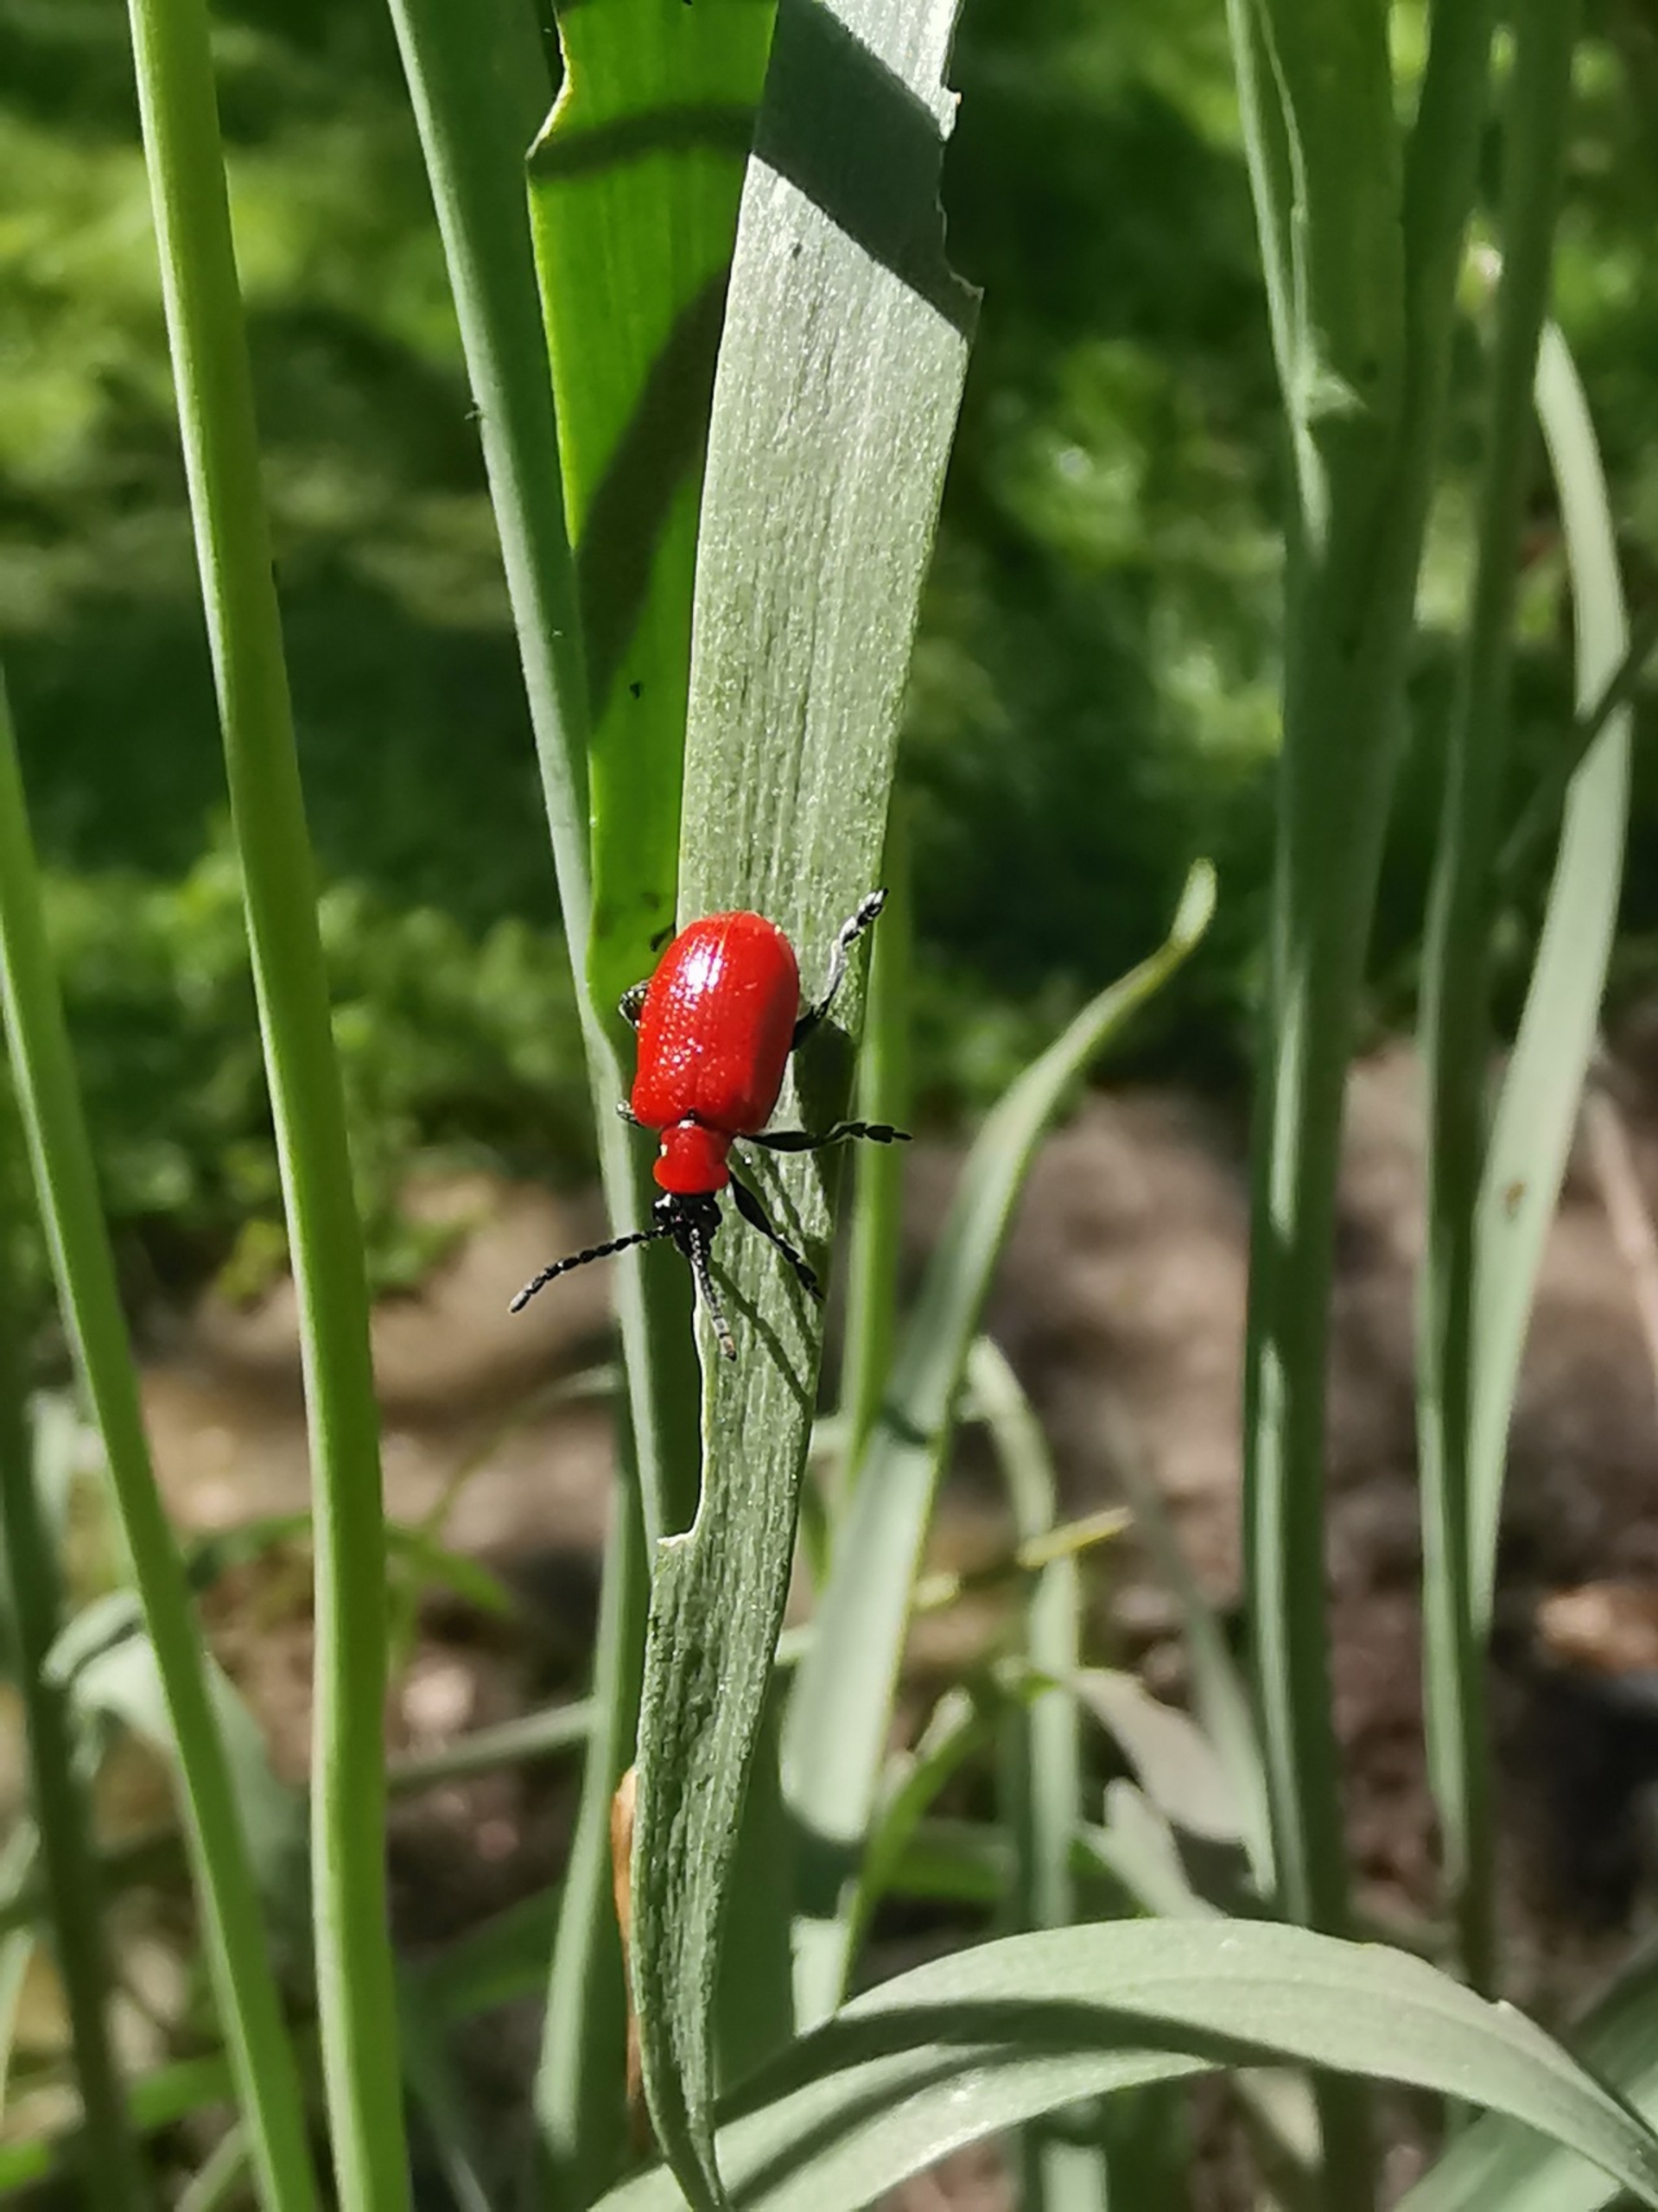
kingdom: Animalia
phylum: Arthropoda
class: Insecta
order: Coleoptera
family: Chrysomelidae
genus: Lilioceris
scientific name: Lilioceris lilii
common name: Liljebille
